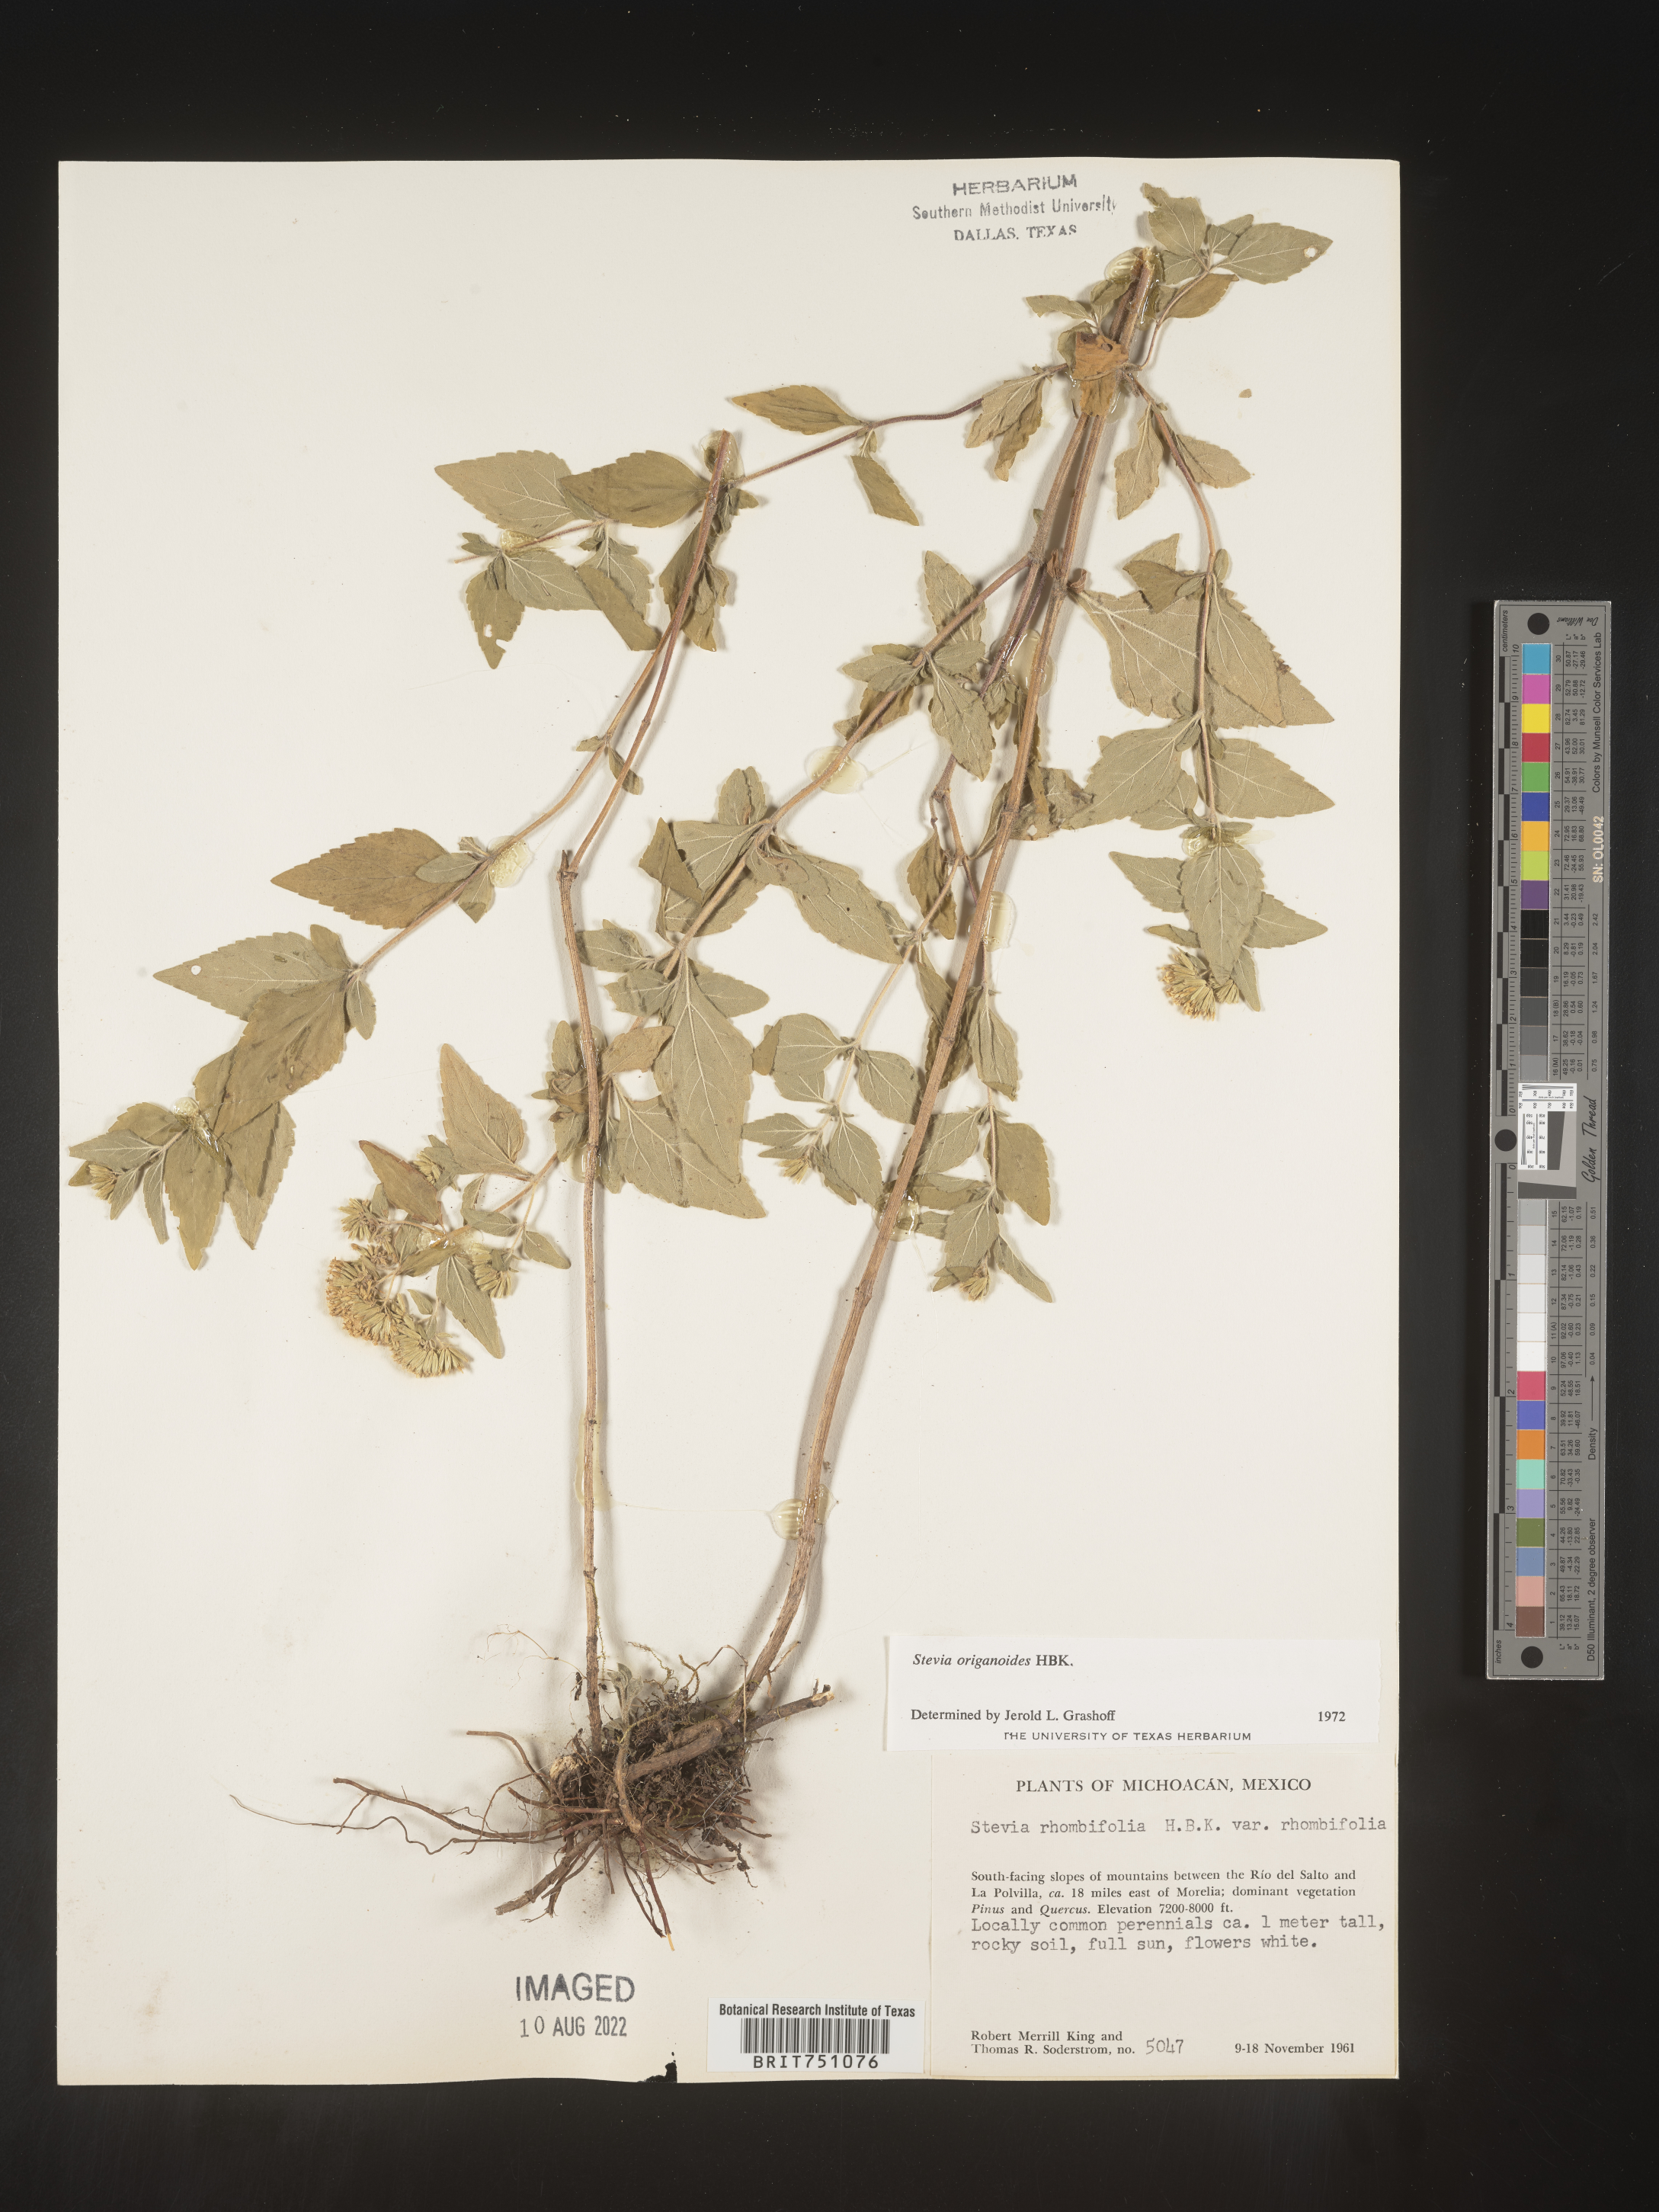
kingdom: Plantae
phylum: Tracheophyta
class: Magnoliopsida
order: Asterales
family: Asteraceae
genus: Stevia
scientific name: Stevia origanoides
